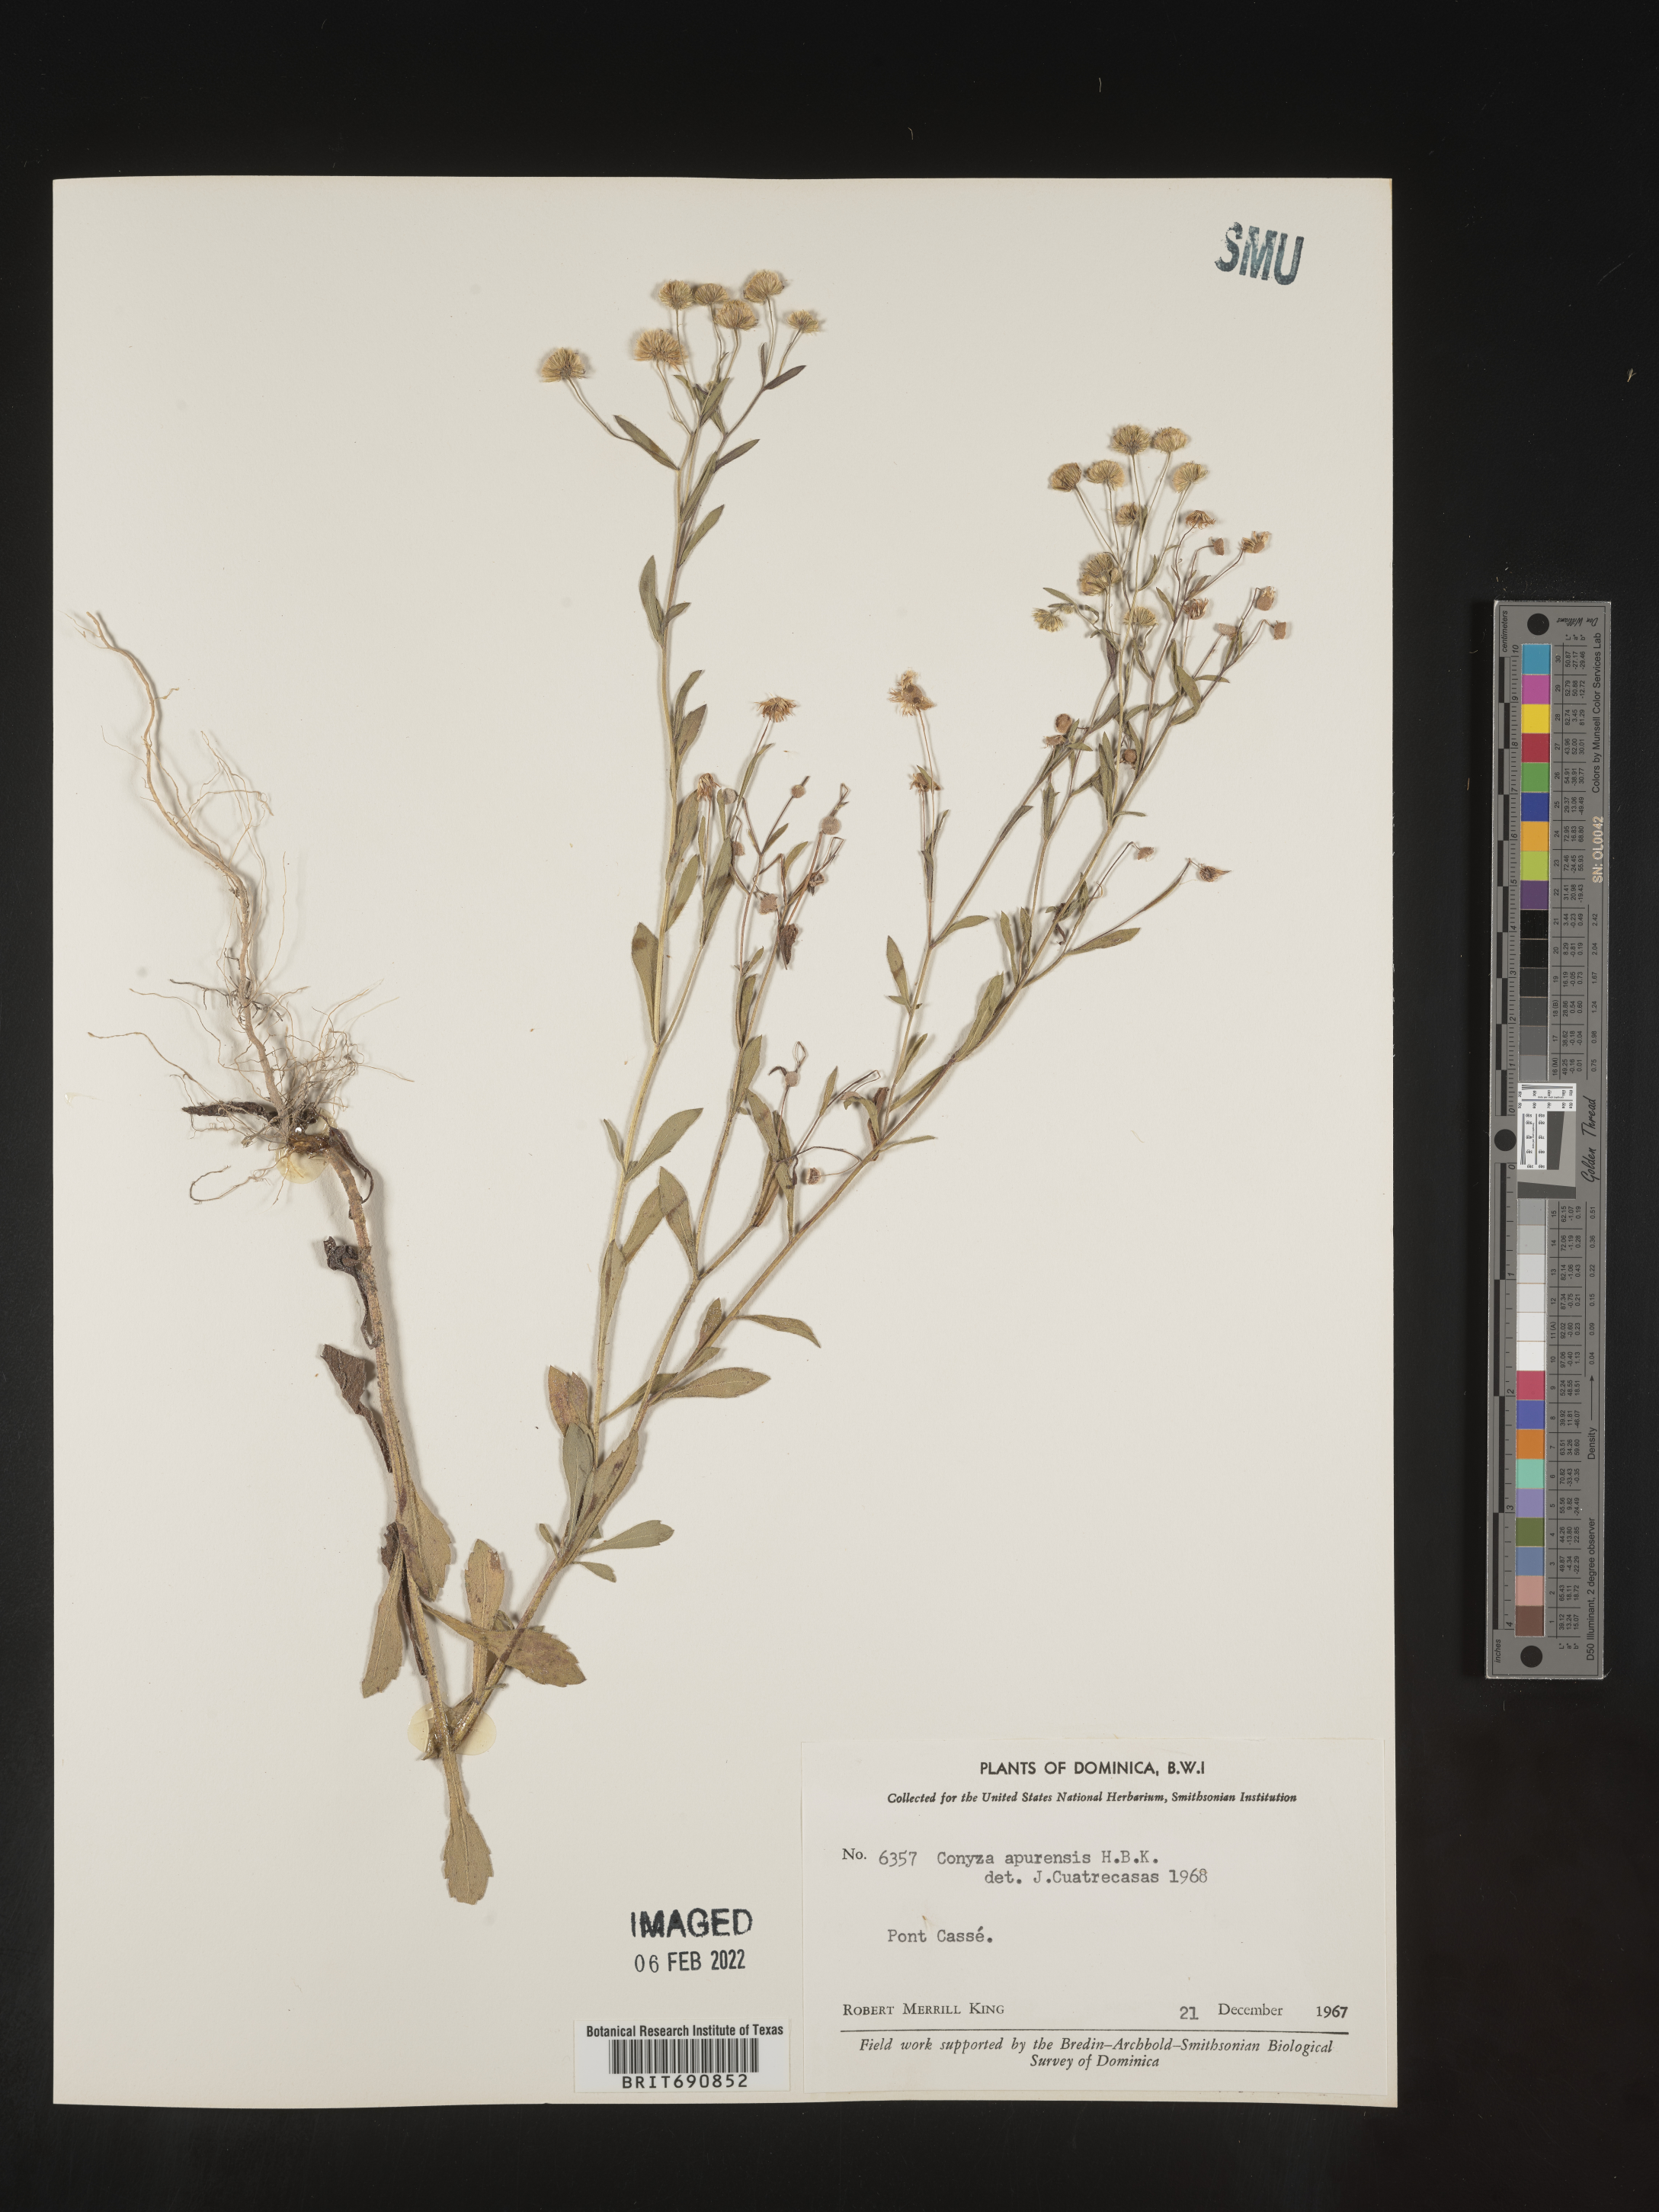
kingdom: Plantae
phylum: Tracheophyta
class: Magnoliopsida
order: Asterales
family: Asteraceae
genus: Conyza
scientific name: Conyza
